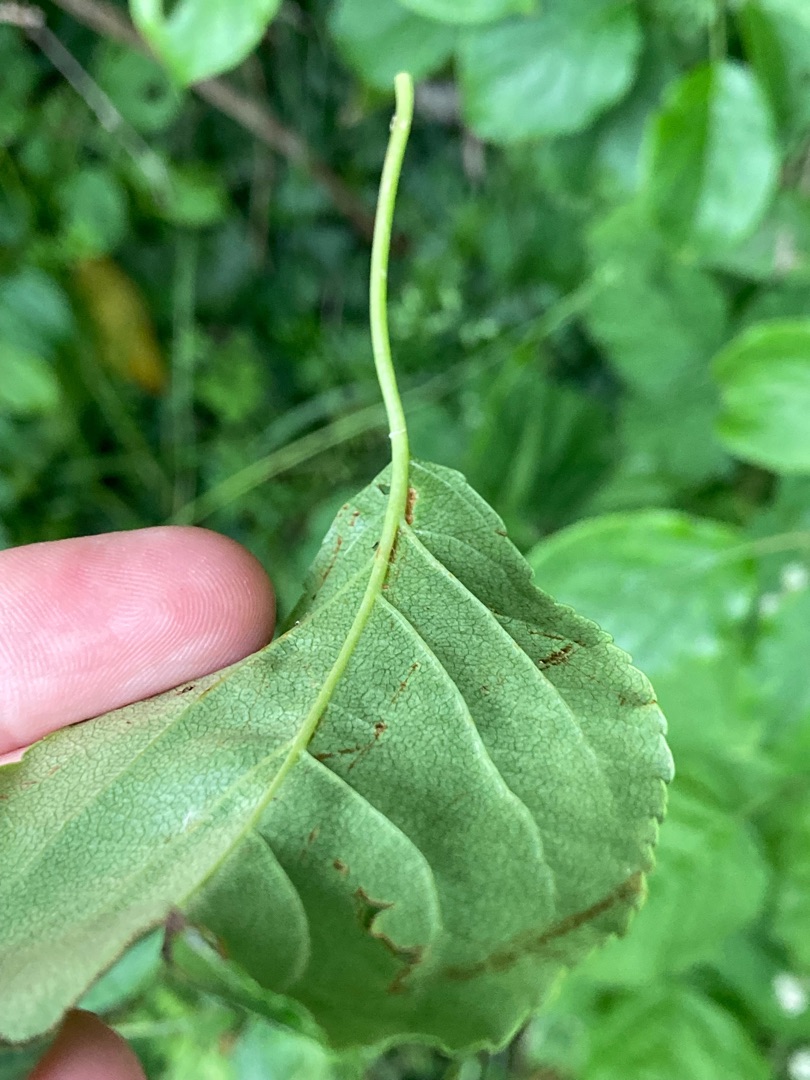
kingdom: Plantae
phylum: Tracheophyta
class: Magnoliopsida
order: Rosales
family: Rosaceae
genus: Malus
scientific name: Malus prunifolia
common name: Sibirisk æble
